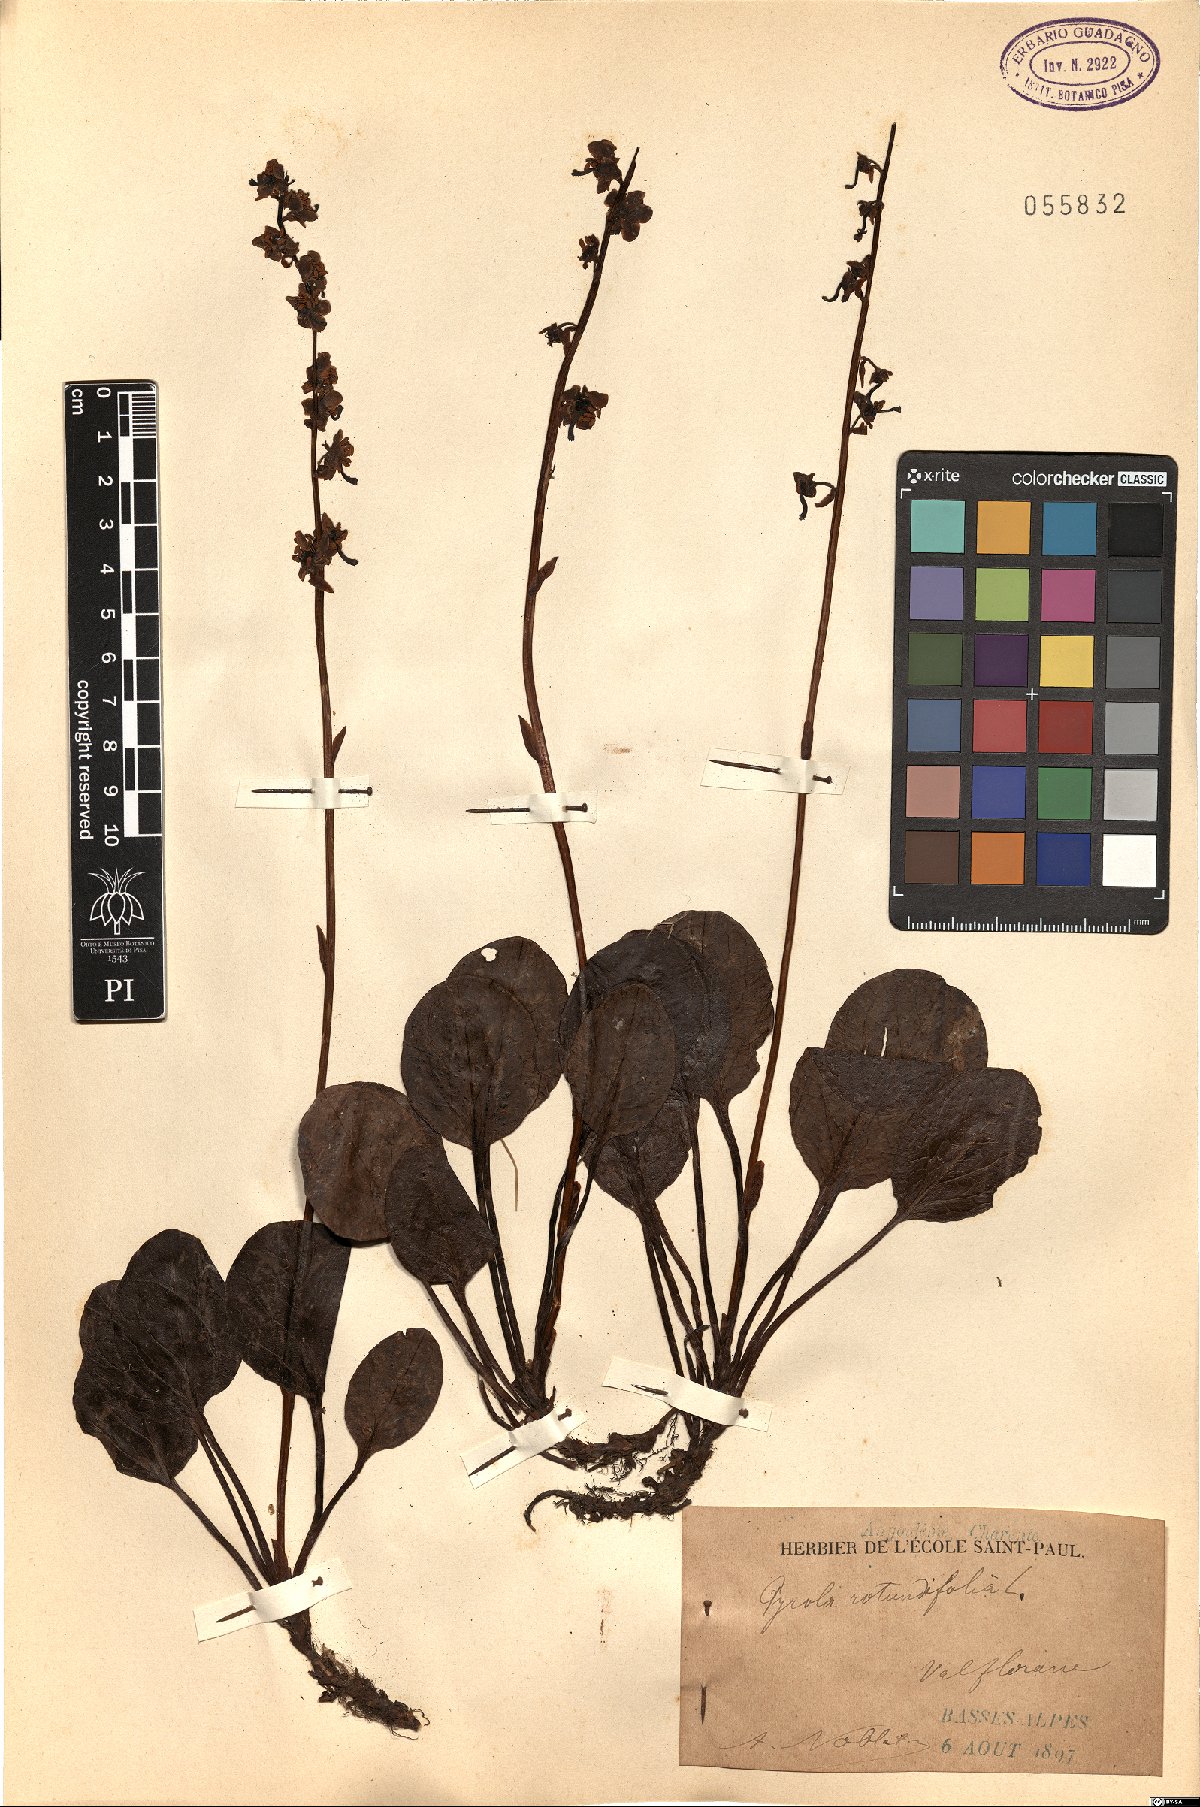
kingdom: Plantae
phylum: Tracheophyta
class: Magnoliopsida
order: Ericales
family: Ericaceae
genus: Pyrola
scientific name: Pyrola rotundifolia
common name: Round-leaved wintergreen
